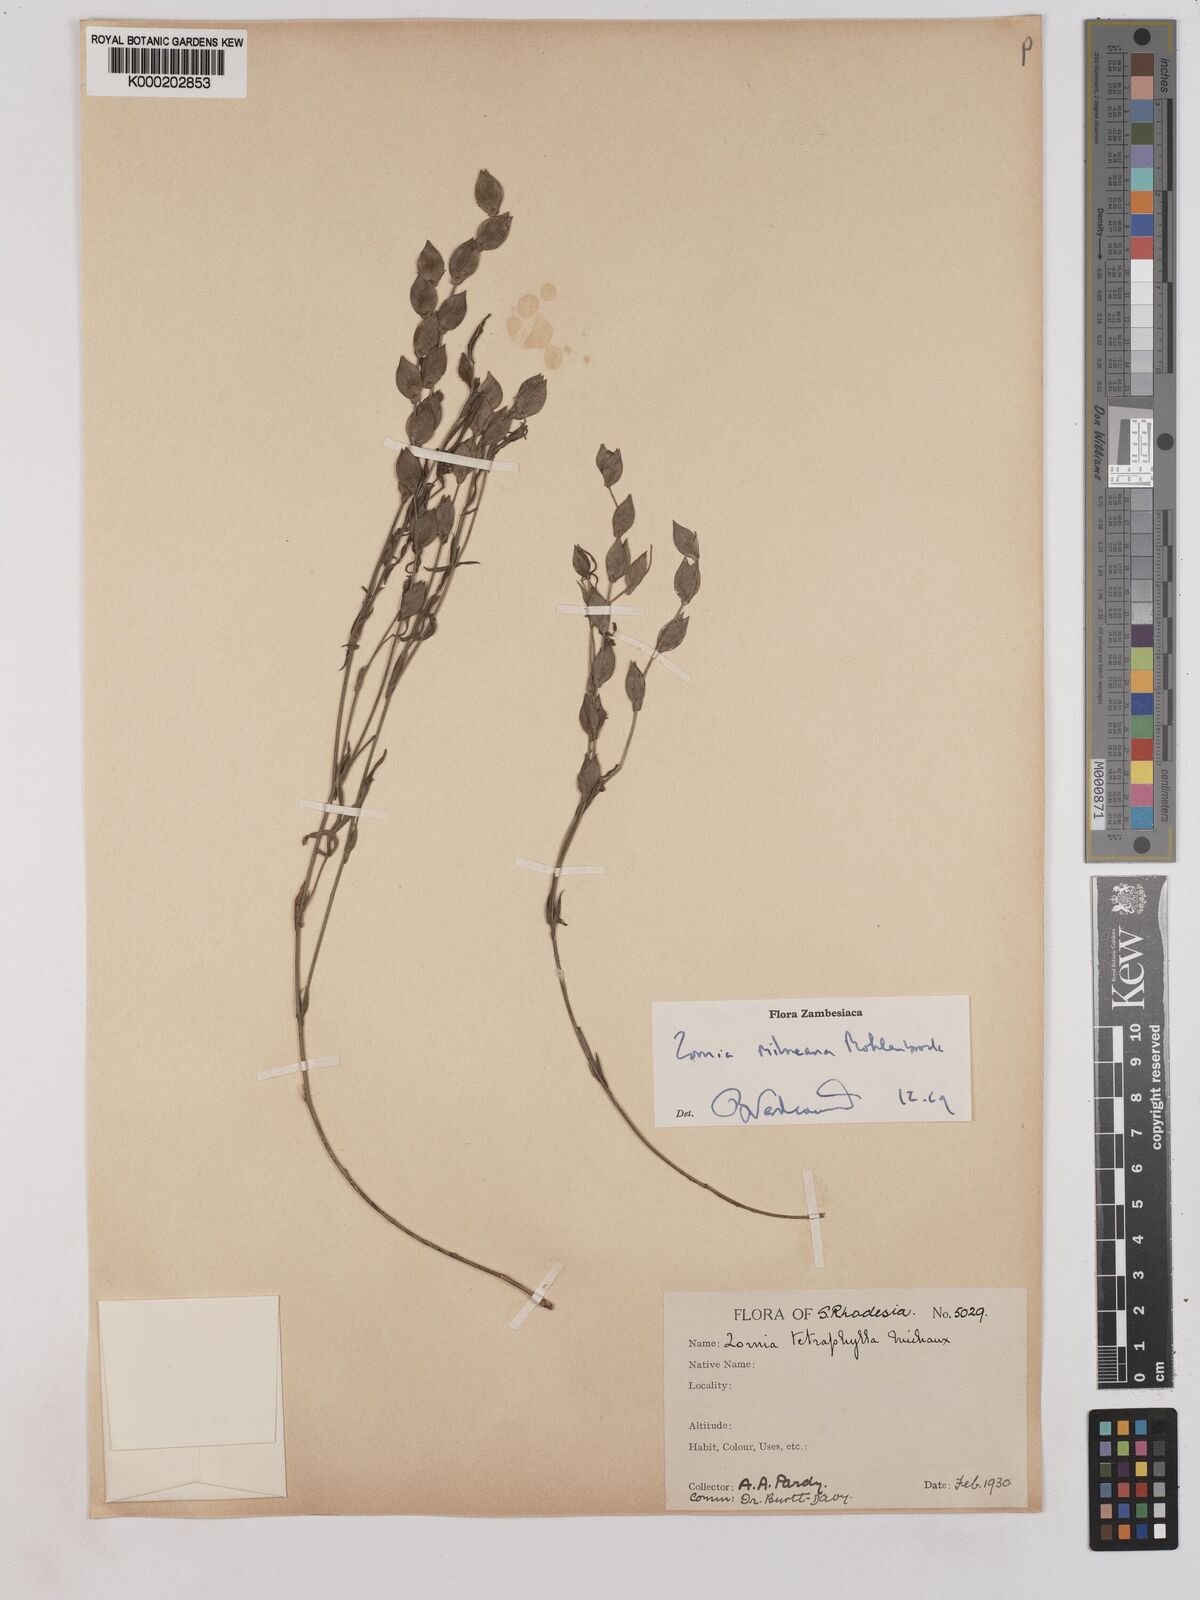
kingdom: Plantae
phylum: Tracheophyta
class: Magnoliopsida
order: Fabales
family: Fabaceae
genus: Zornia
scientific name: Zornia milneana
